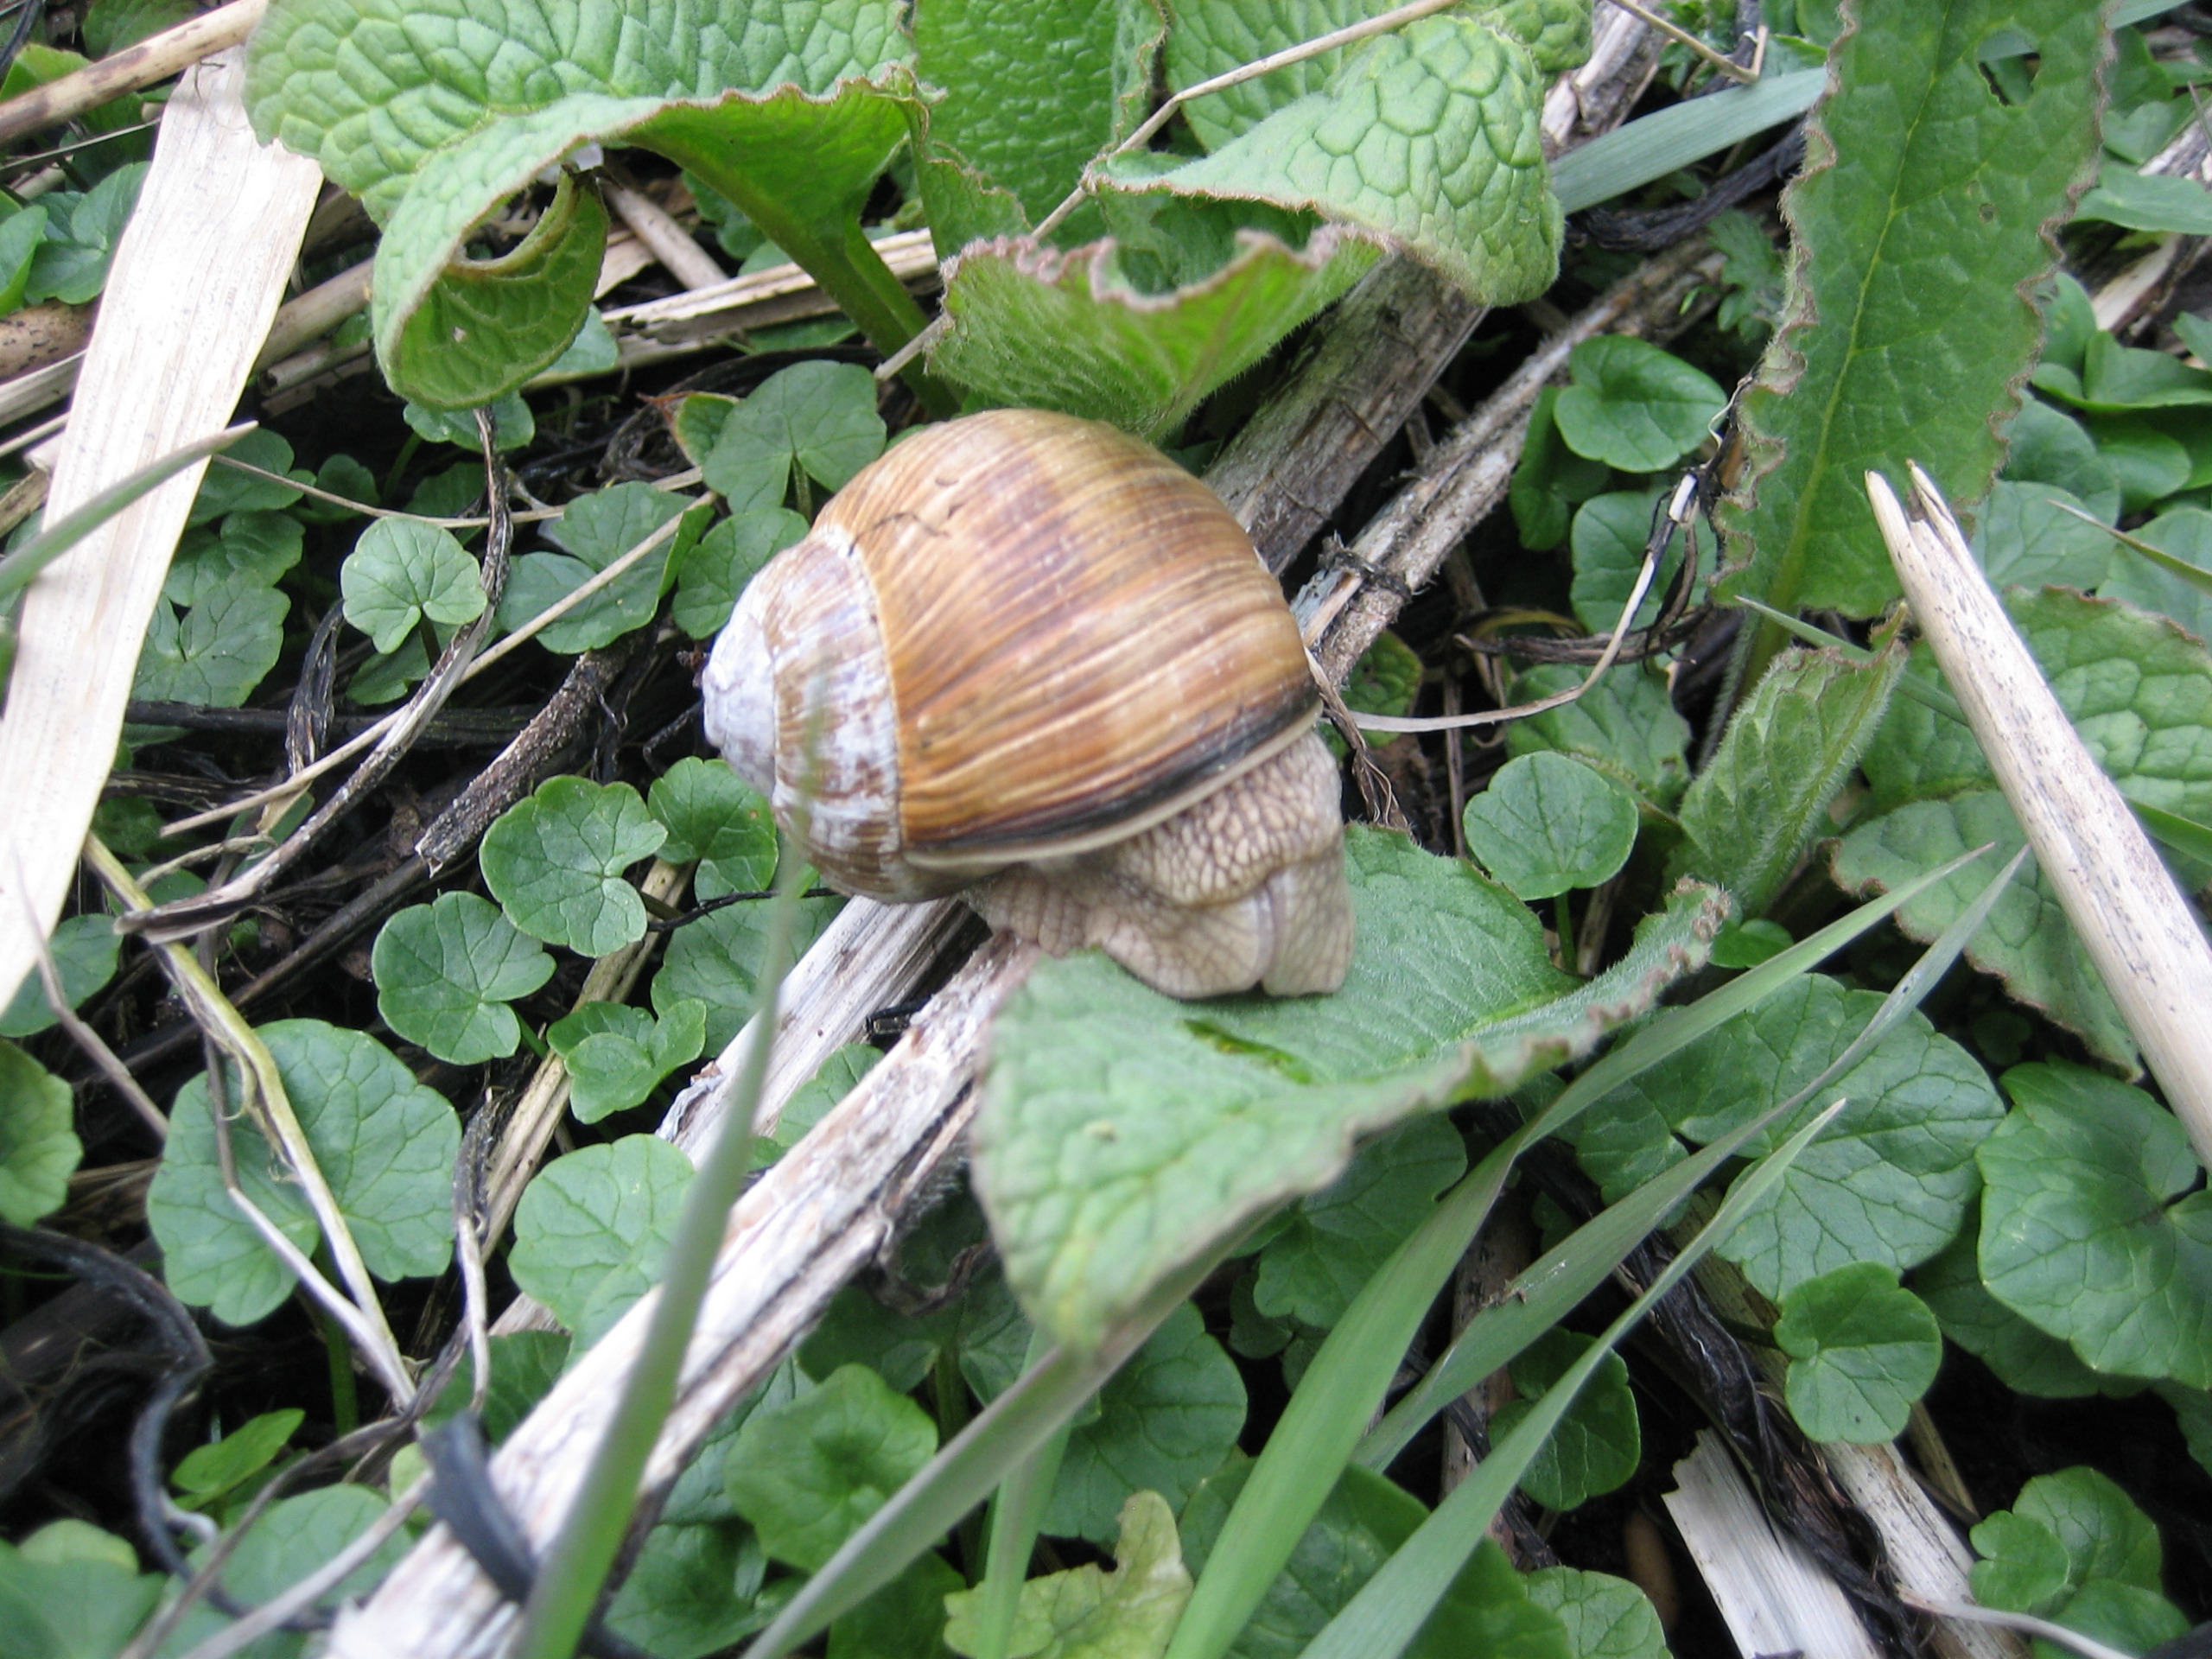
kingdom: Animalia
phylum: Mollusca
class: Gastropoda
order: Stylommatophora
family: Helicidae
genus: Helix
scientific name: Helix pomatia
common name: Vinbjergsnegl
